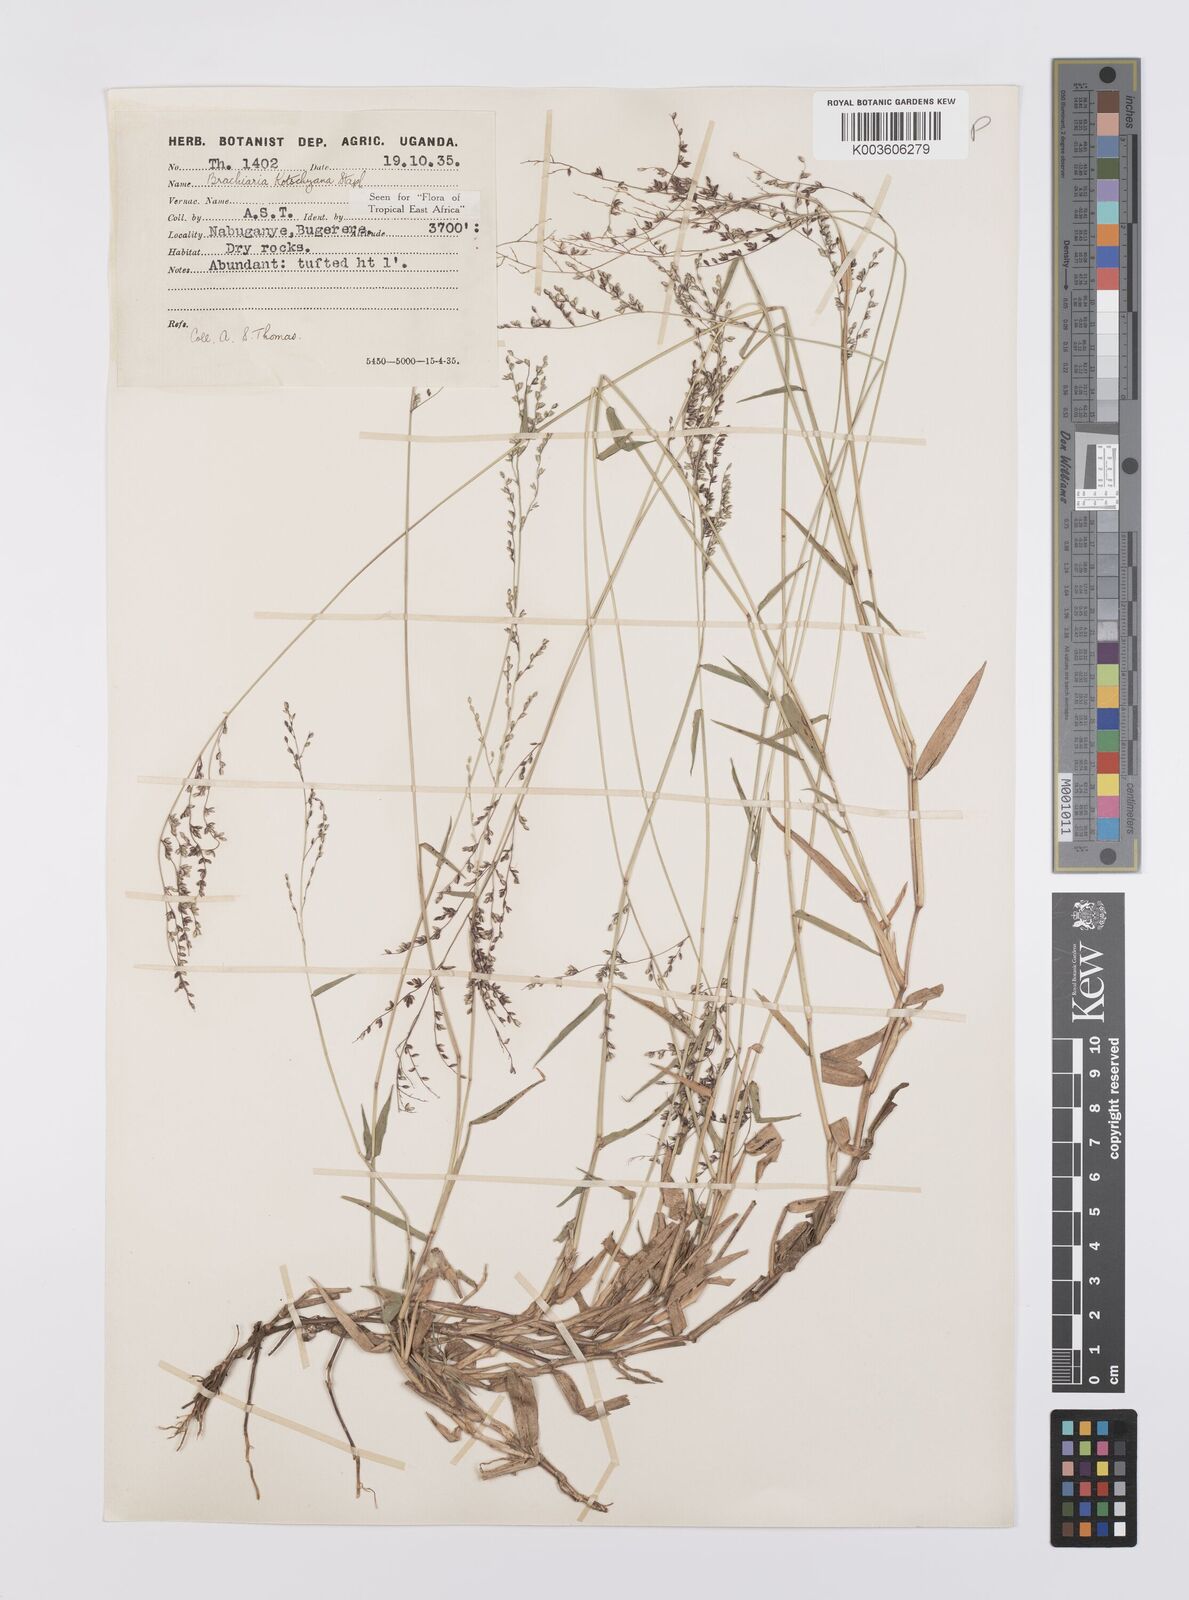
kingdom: Plantae
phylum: Tracheophyta
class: Liliopsida
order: Poales
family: Poaceae
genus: Urochloa
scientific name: Urochloa comata
